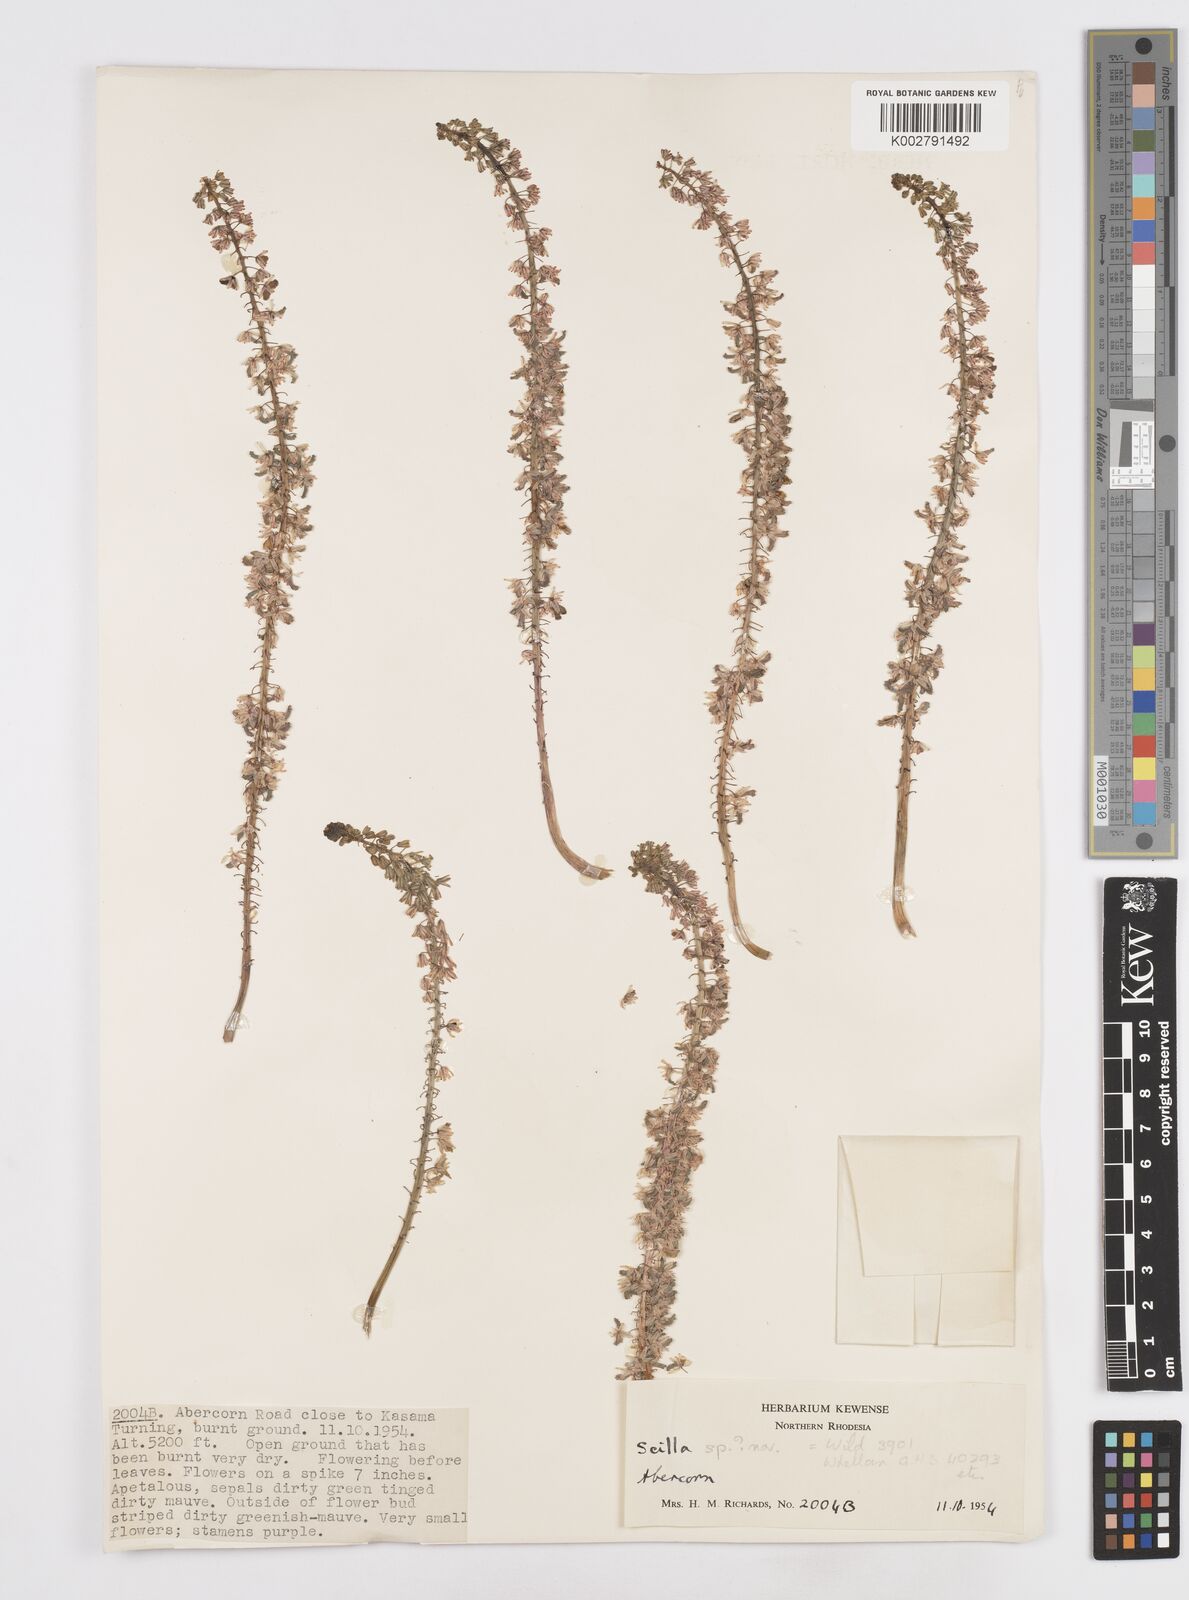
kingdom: Plantae
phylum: Tracheophyta
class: Liliopsida
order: Asparagales
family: Asparagaceae
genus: Scilla
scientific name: Scilla
